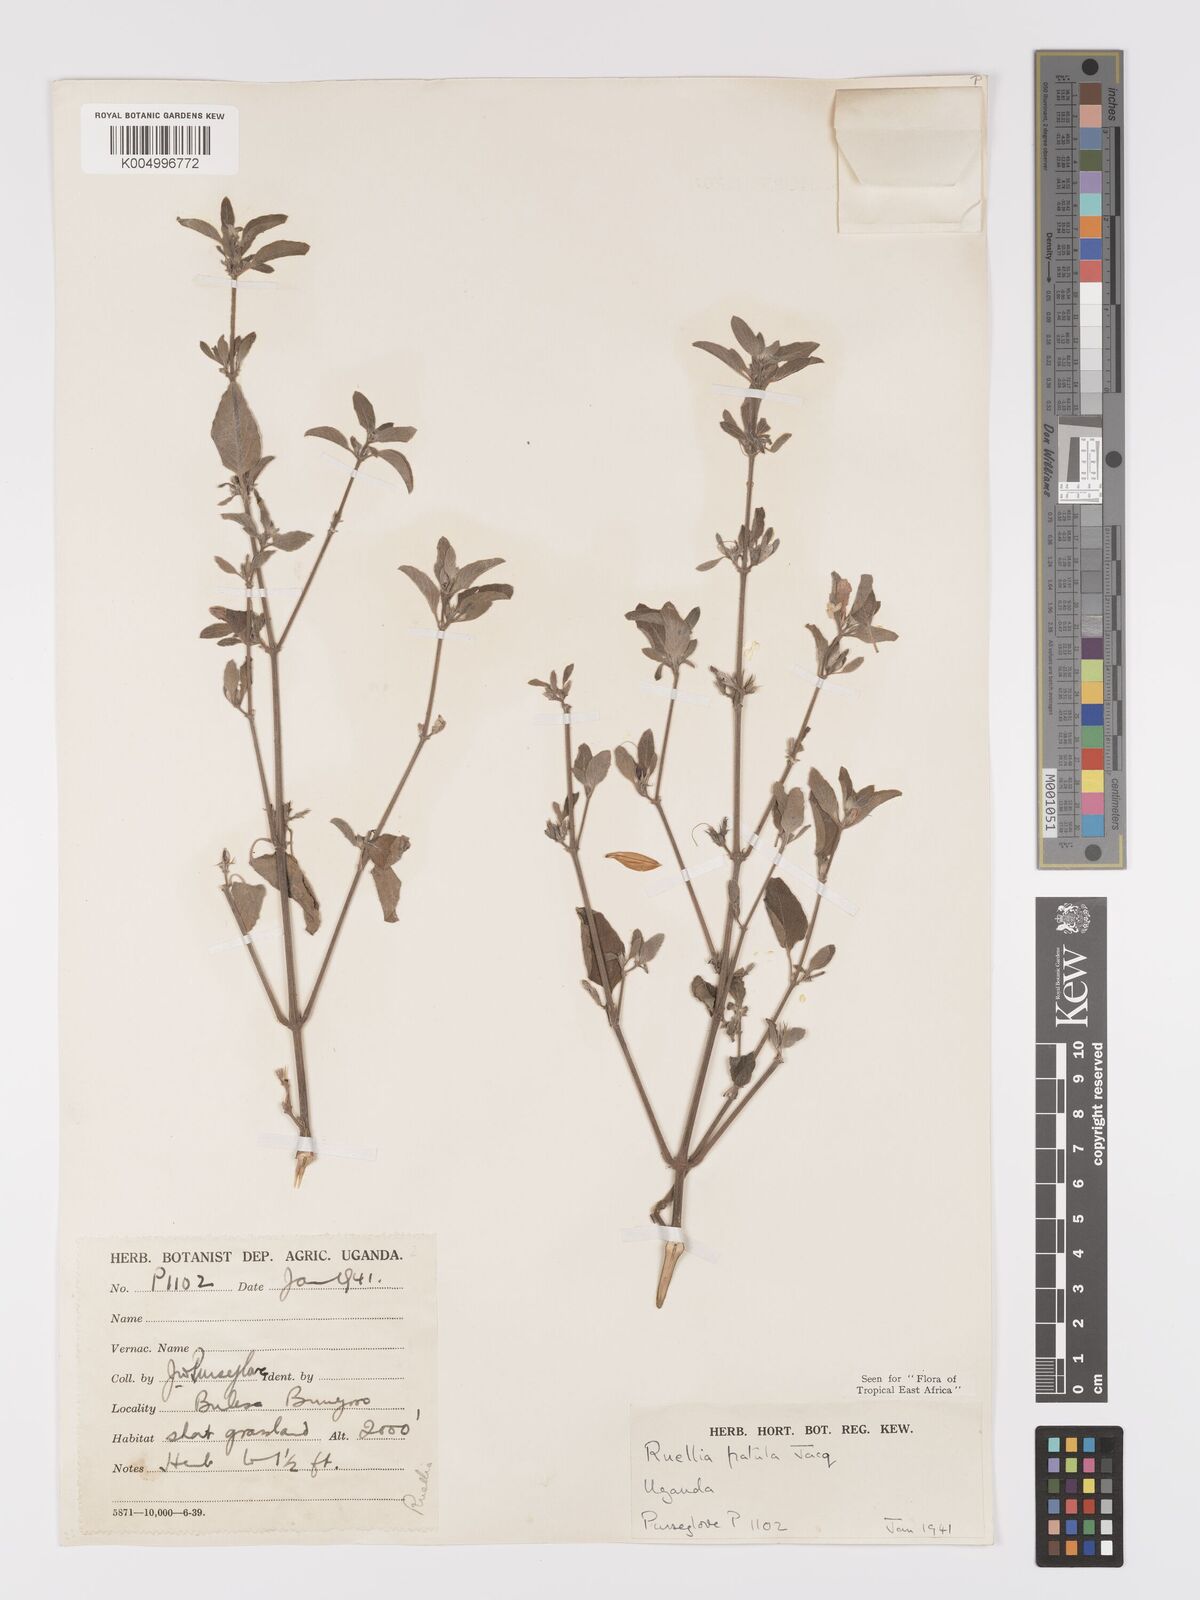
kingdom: Plantae
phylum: Tracheophyta
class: Magnoliopsida
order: Lamiales
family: Acanthaceae
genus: Ruellia
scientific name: Ruellia patula
